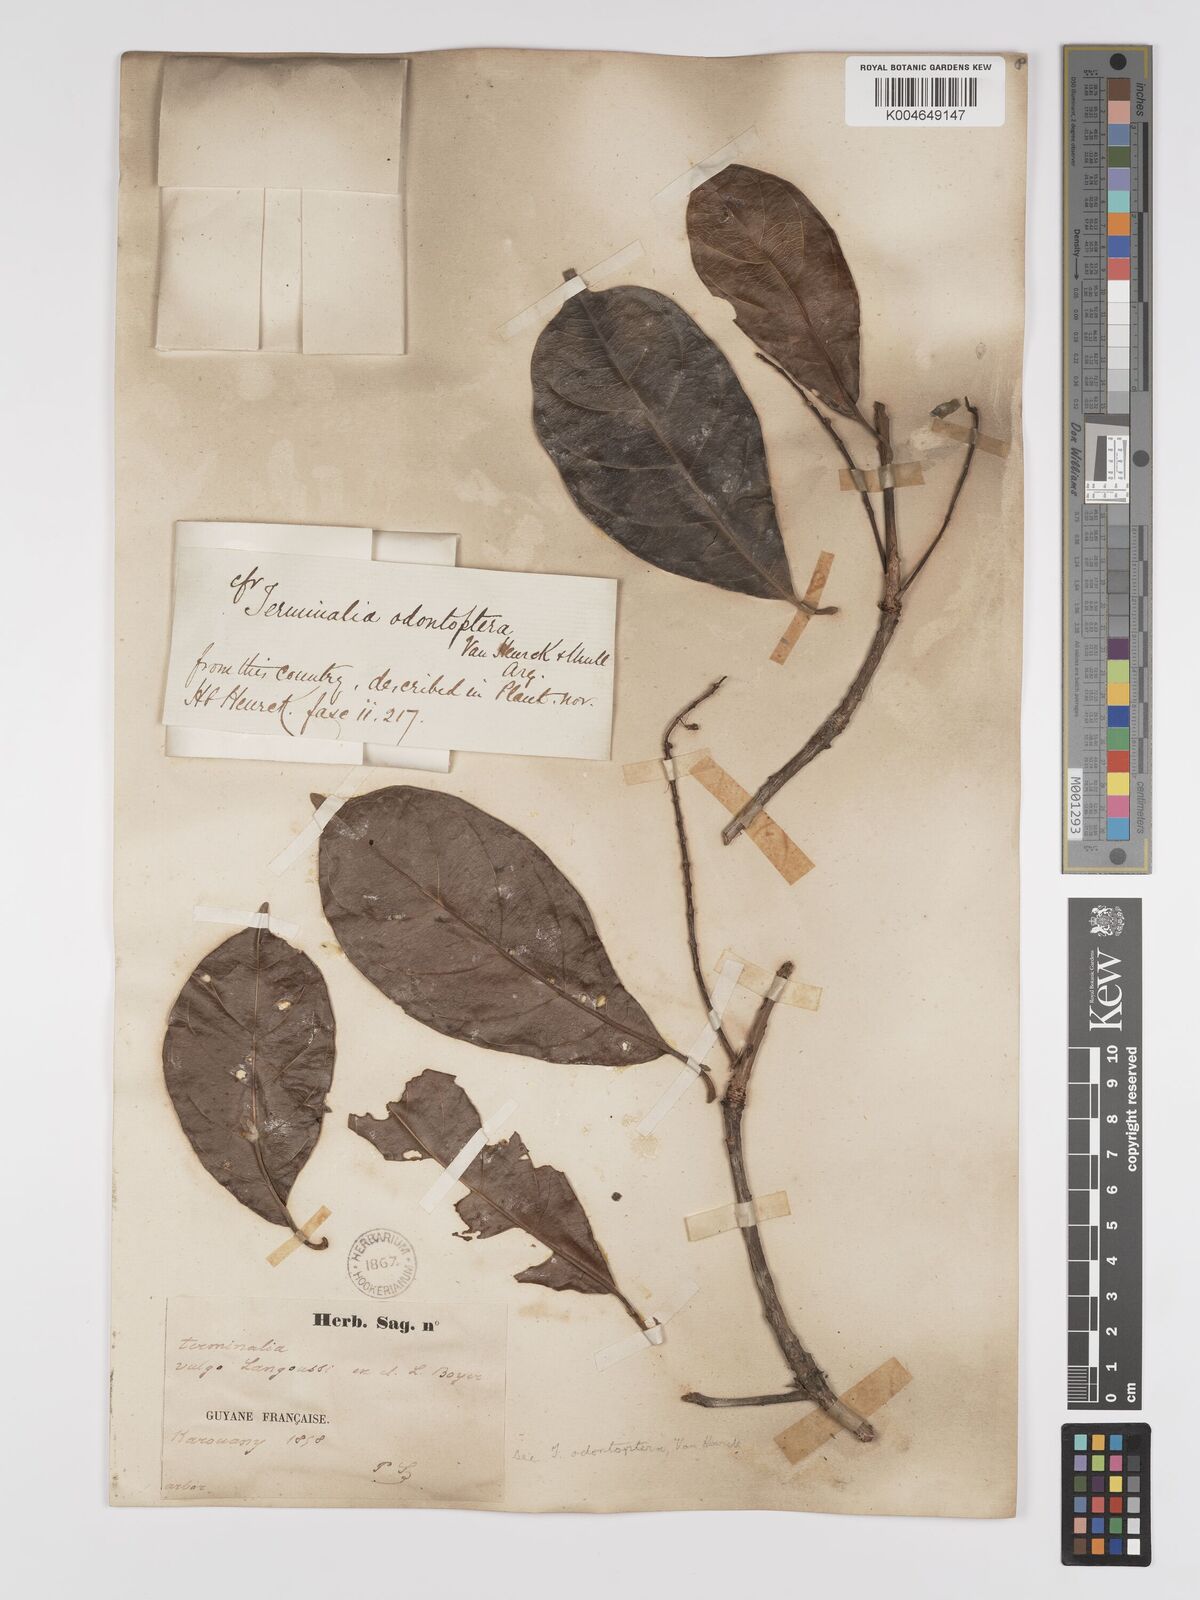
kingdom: Plantae
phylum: Tracheophyta
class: Magnoliopsida
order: Myrtales
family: Combretaceae
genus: Terminalia
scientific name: Terminalia dichotoma
